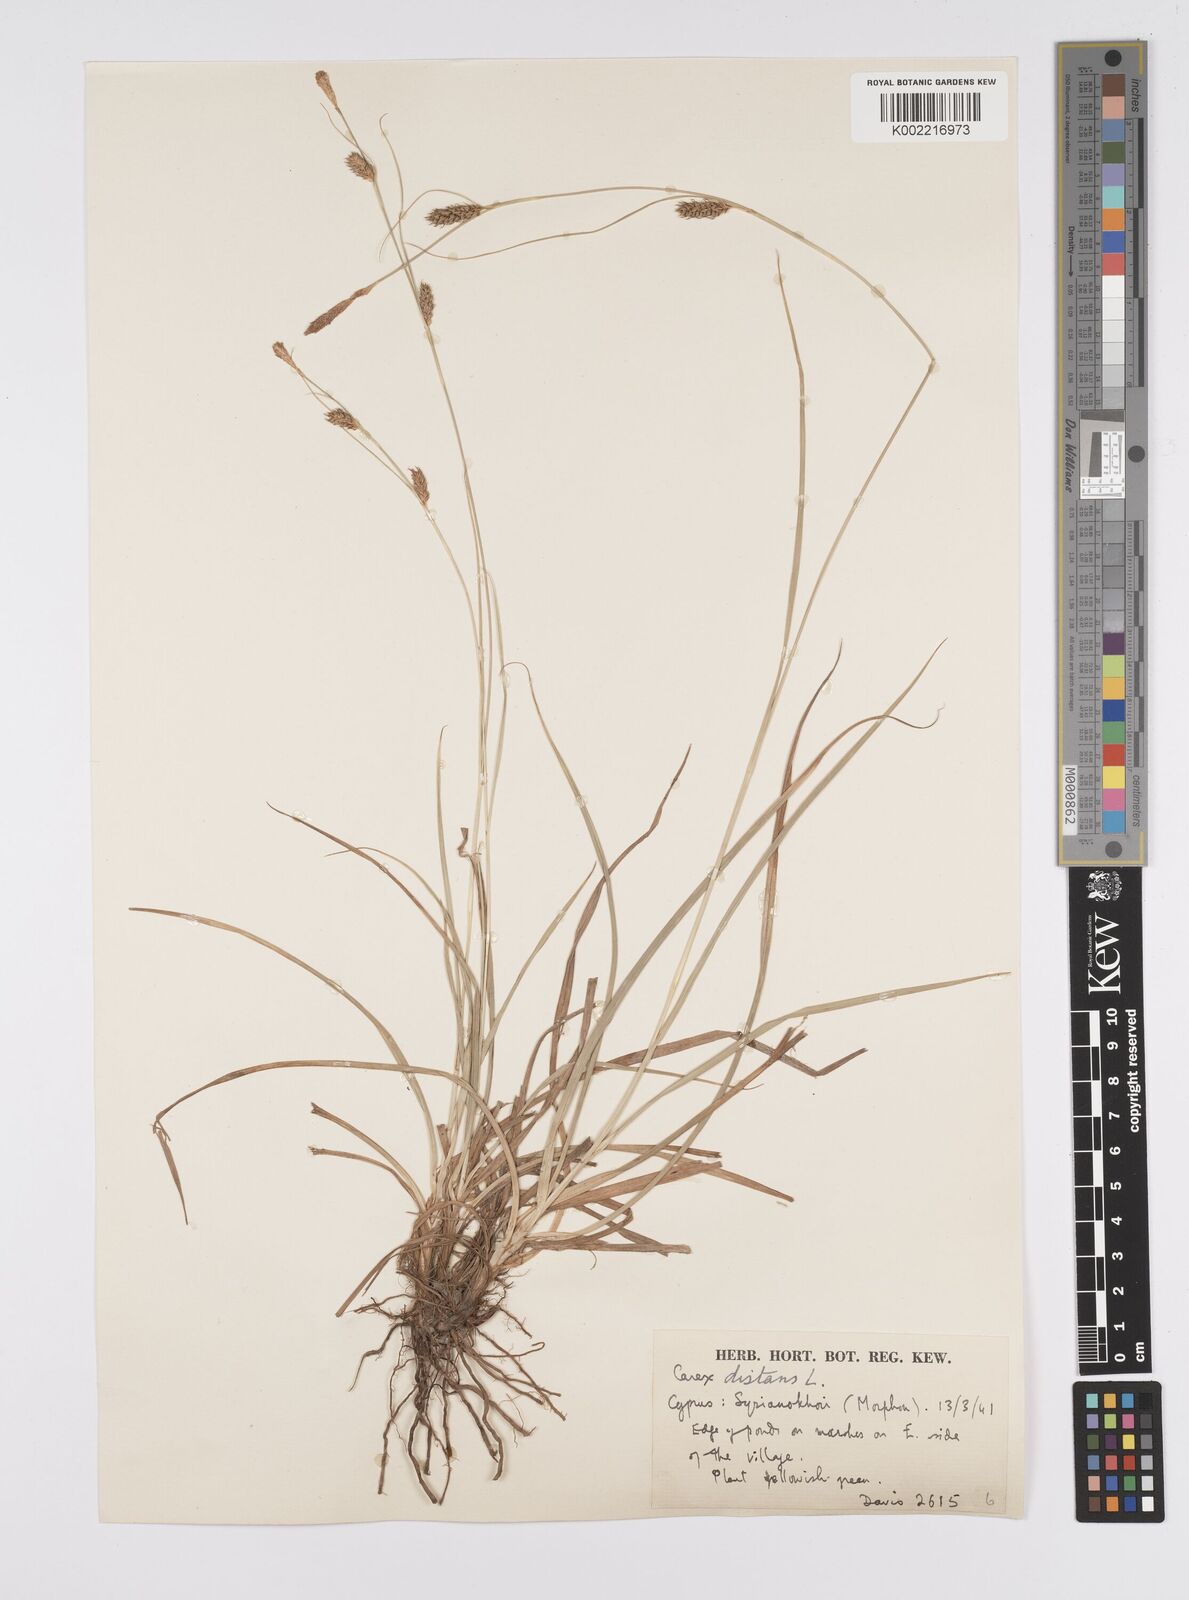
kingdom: Plantae
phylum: Tracheophyta
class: Liliopsida
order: Poales
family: Cyperaceae
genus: Carex
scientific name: Carex distans
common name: Distant sedge
